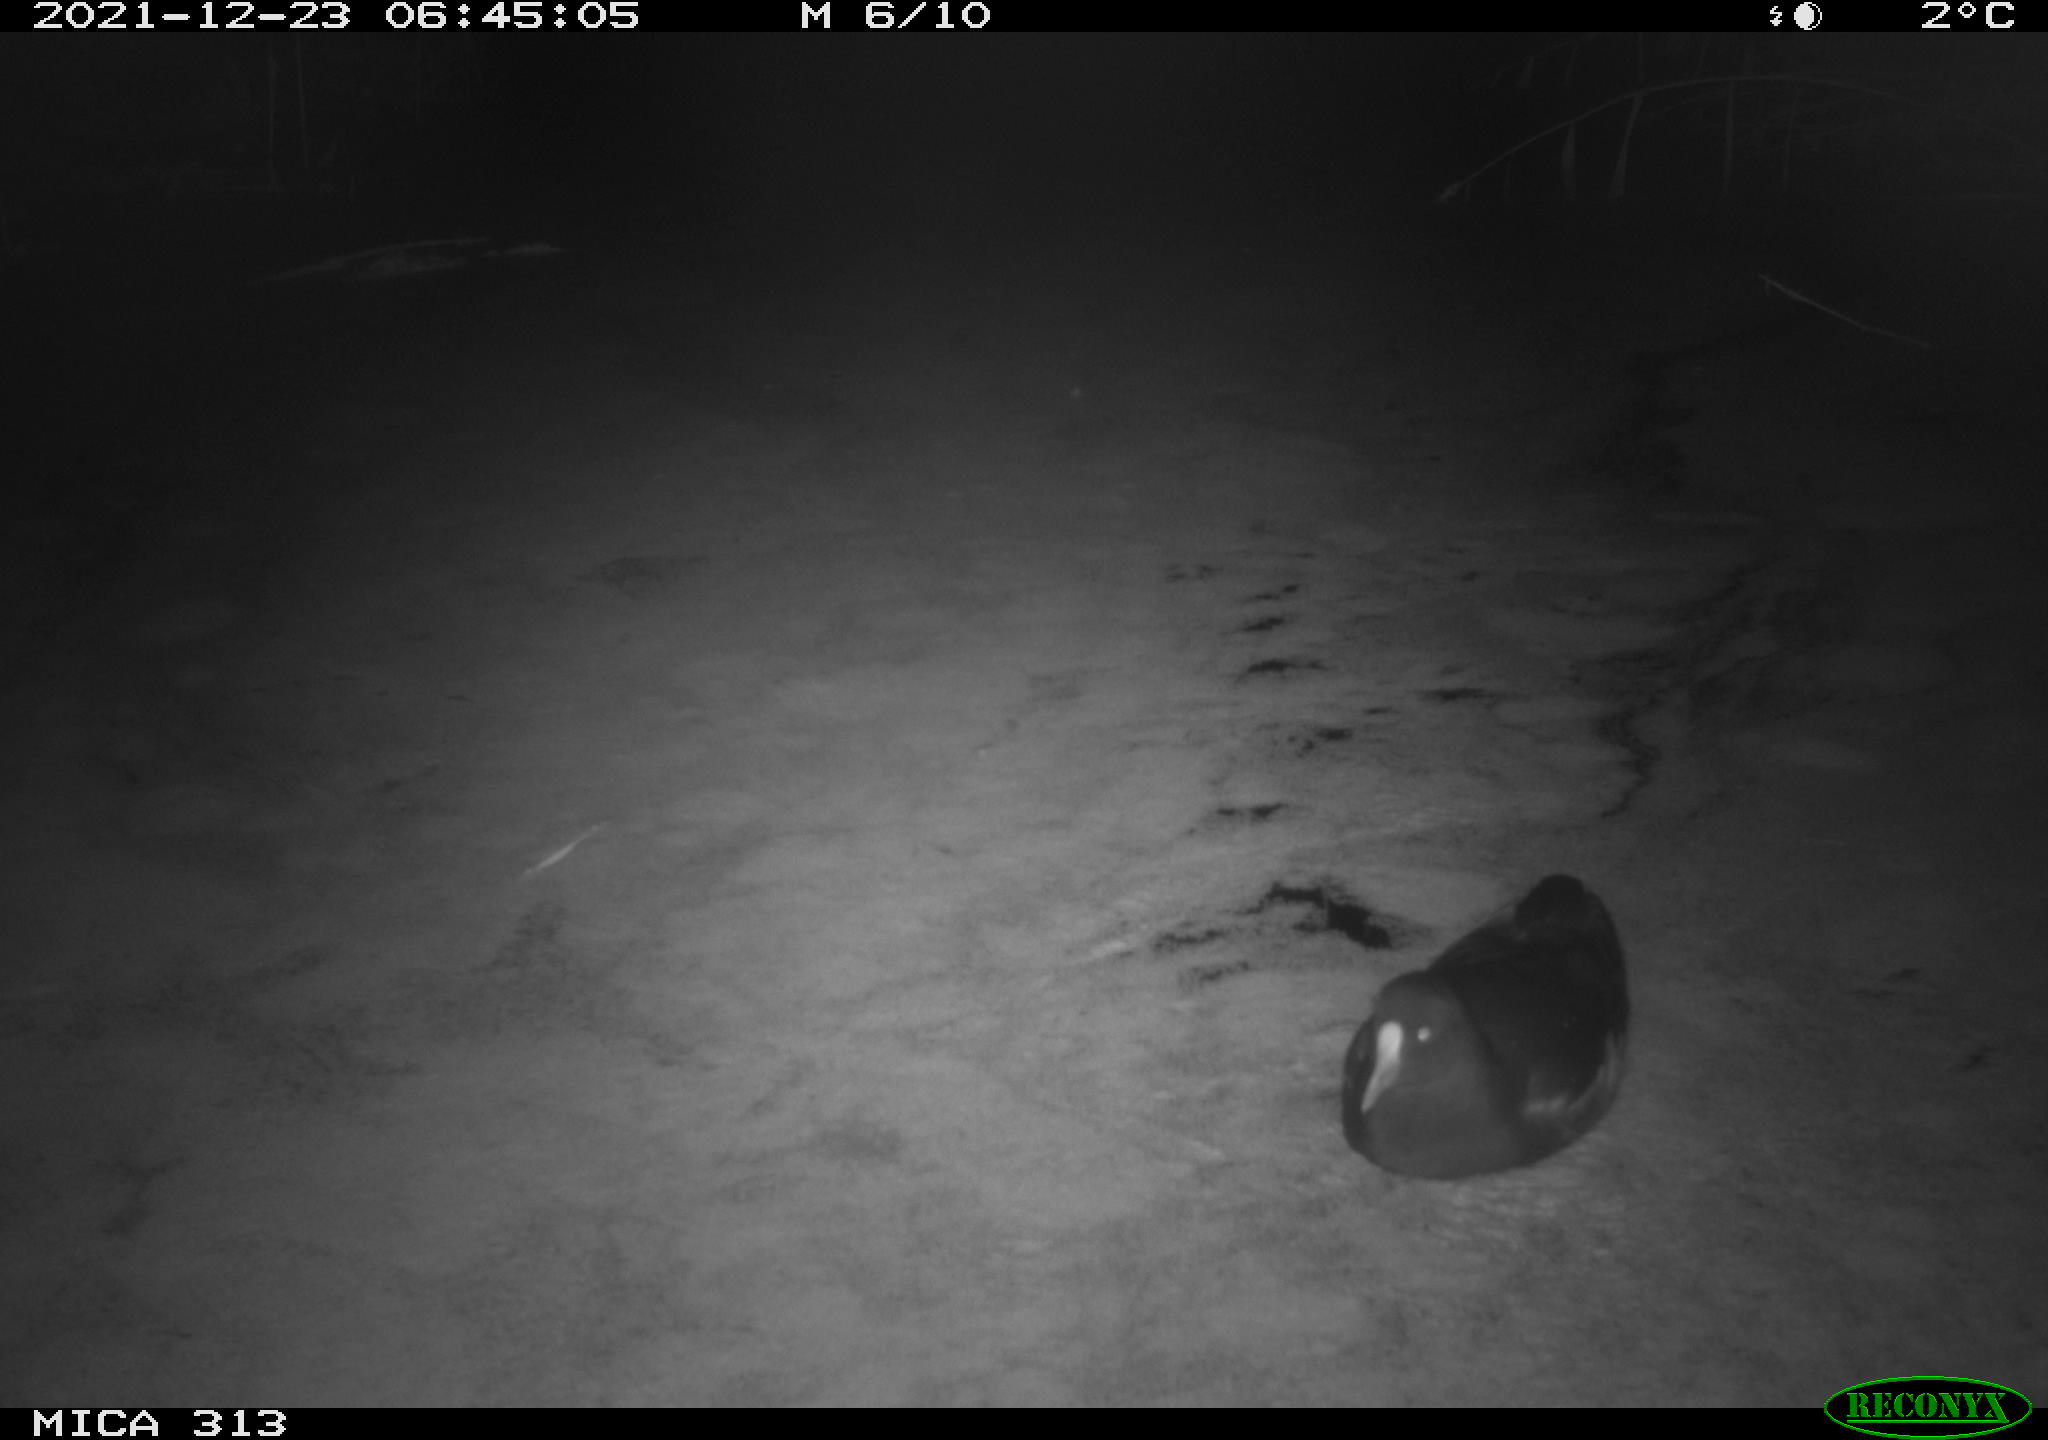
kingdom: Animalia
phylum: Chordata
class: Aves
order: Gruiformes
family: Rallidae
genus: Fulica
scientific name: Fulica atra
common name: Eurasian coot
